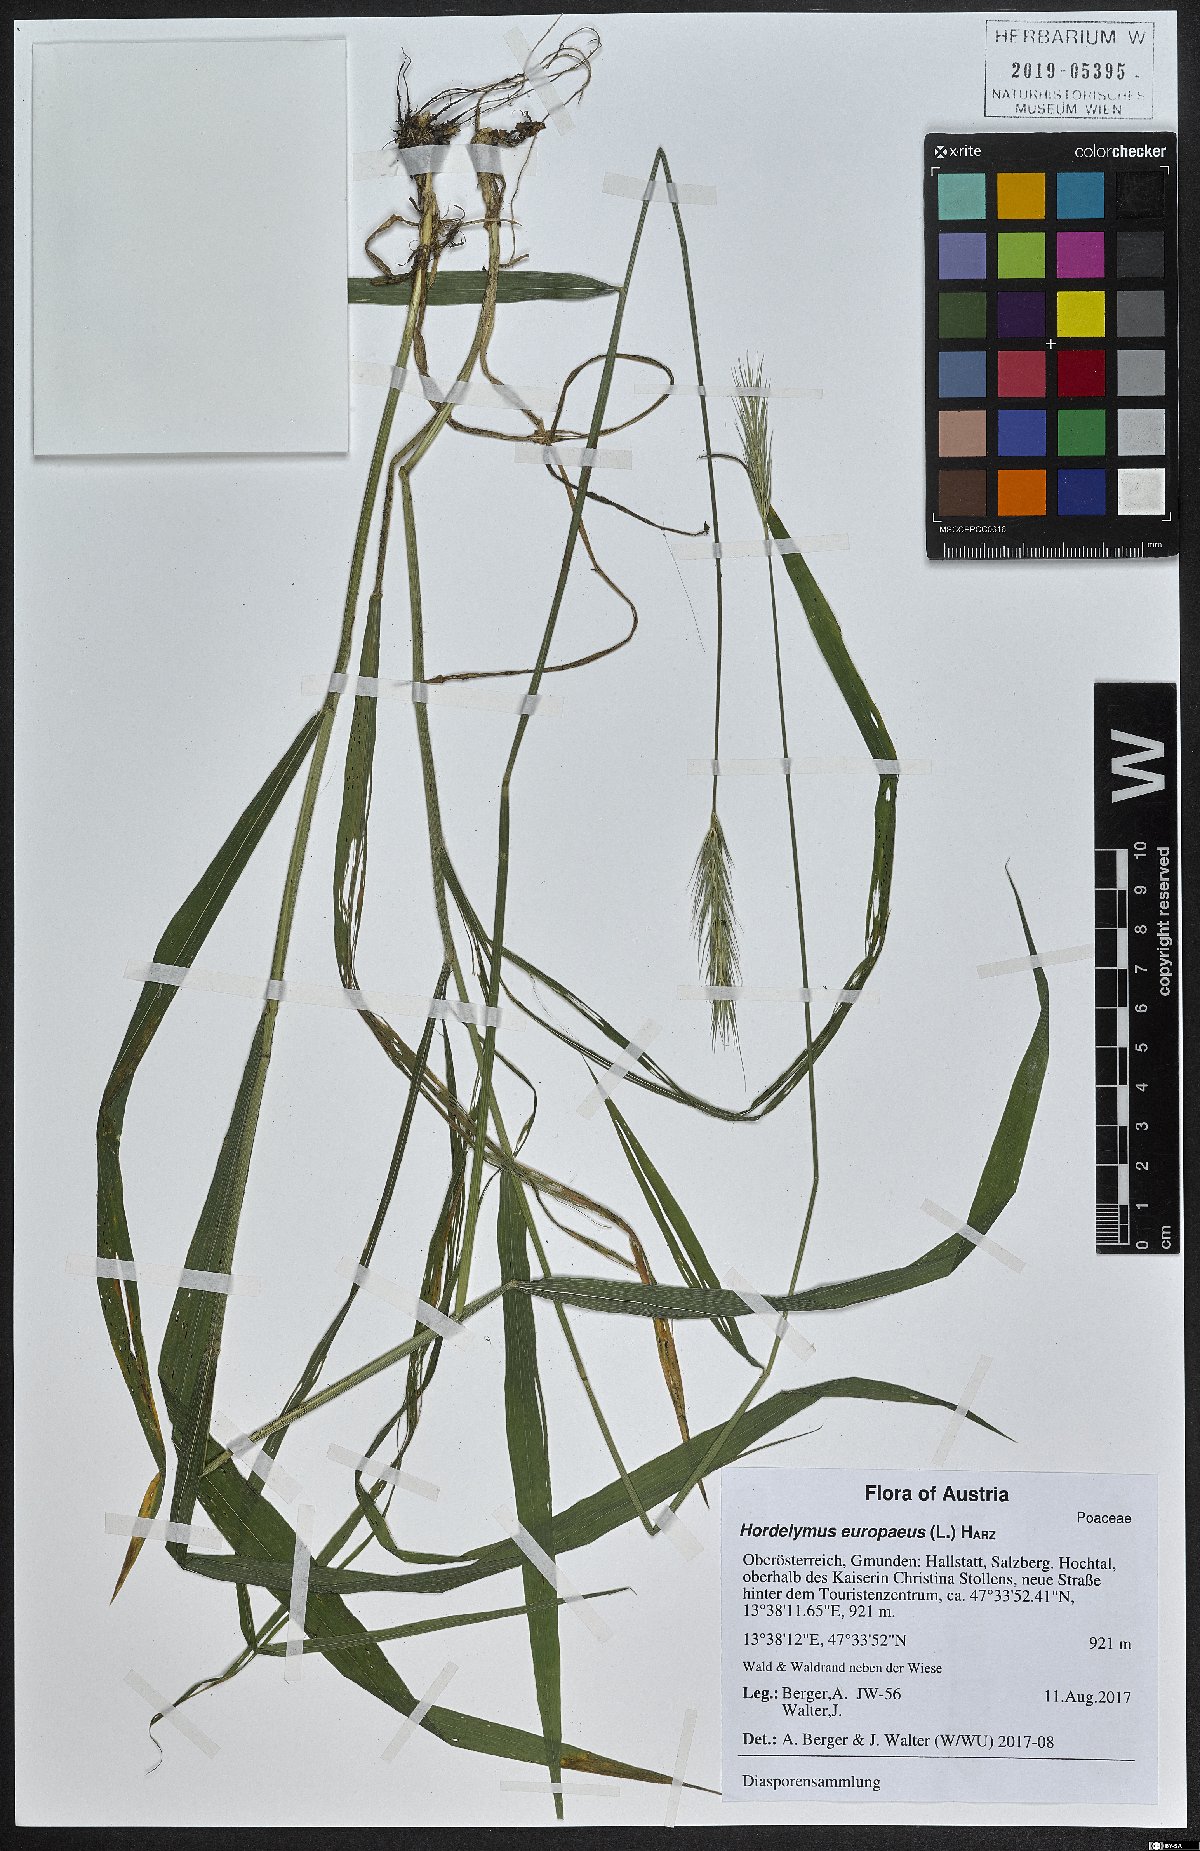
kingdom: Plantae
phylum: Tracheophyta
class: Liliopsida
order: Poales
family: Poaceae
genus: Hordelymus
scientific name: Hordelymus europaeus
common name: Wood-barley
